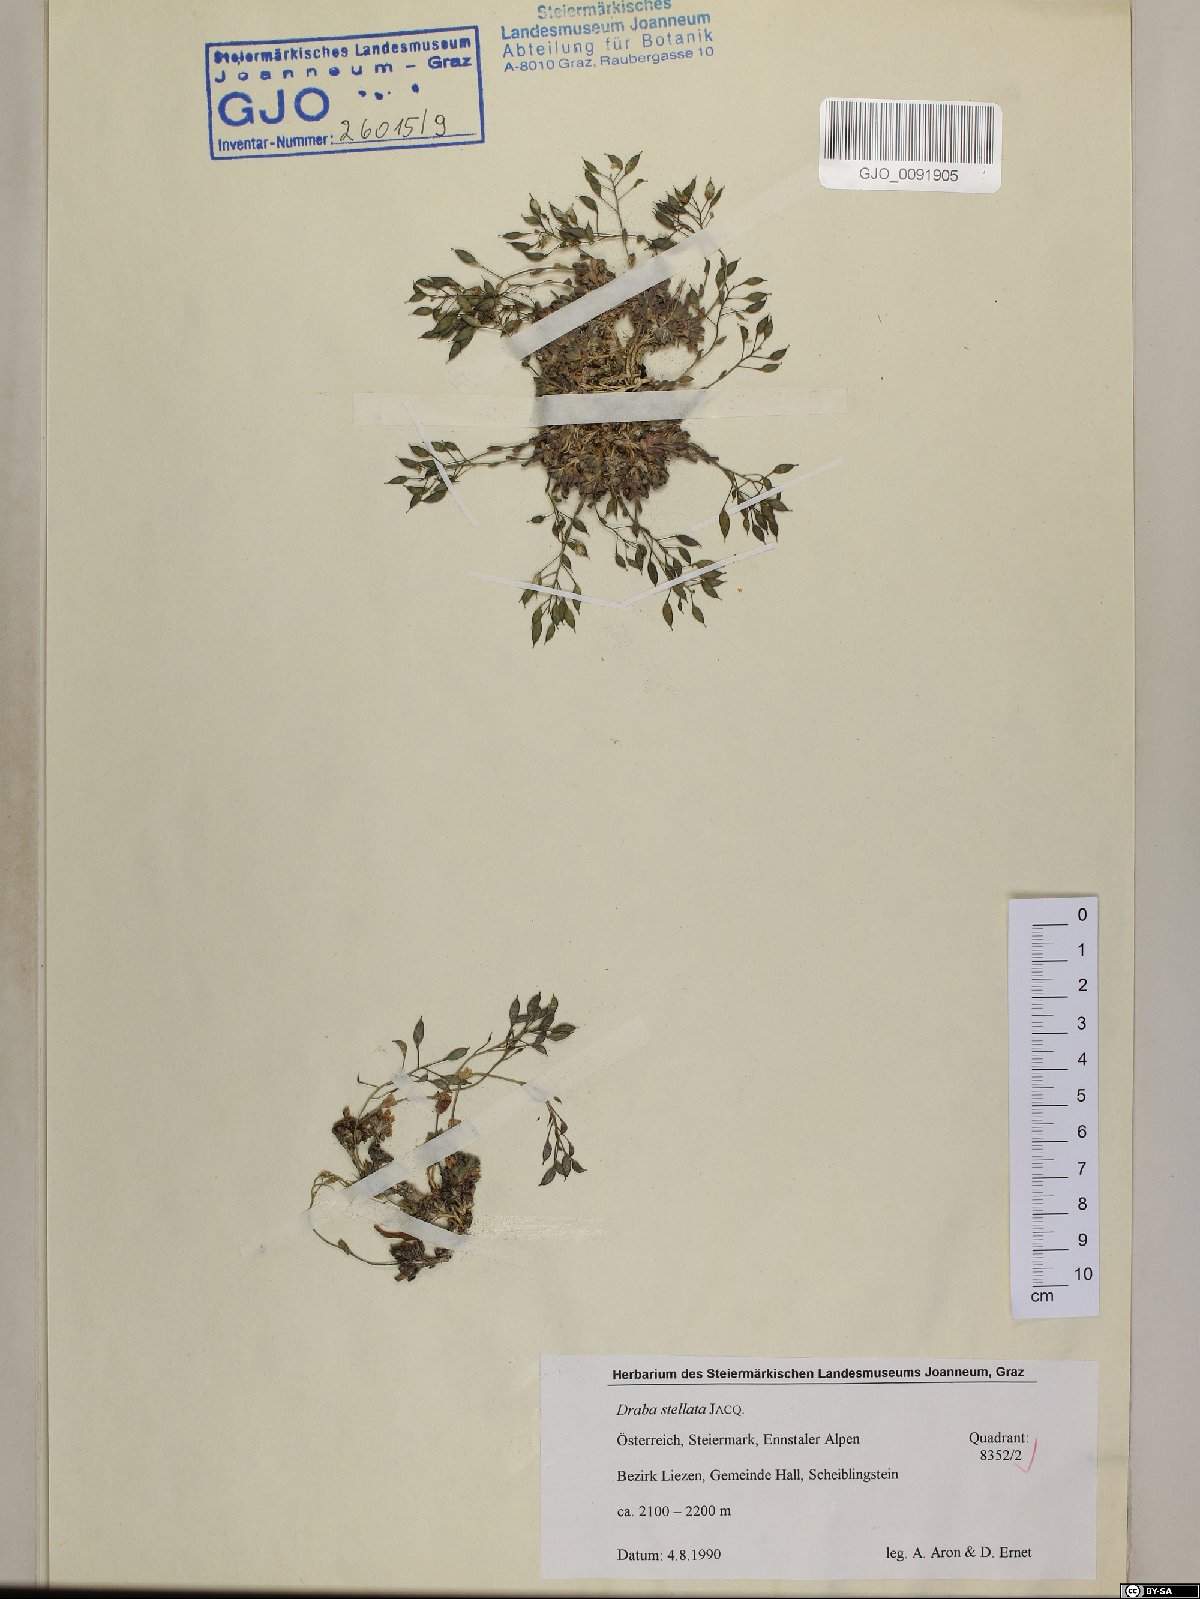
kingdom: Plantae
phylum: Tracheophyta
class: Magnoliopsida
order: Brassicales
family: Brassicaceae
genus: Draba
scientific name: Draba stellata
